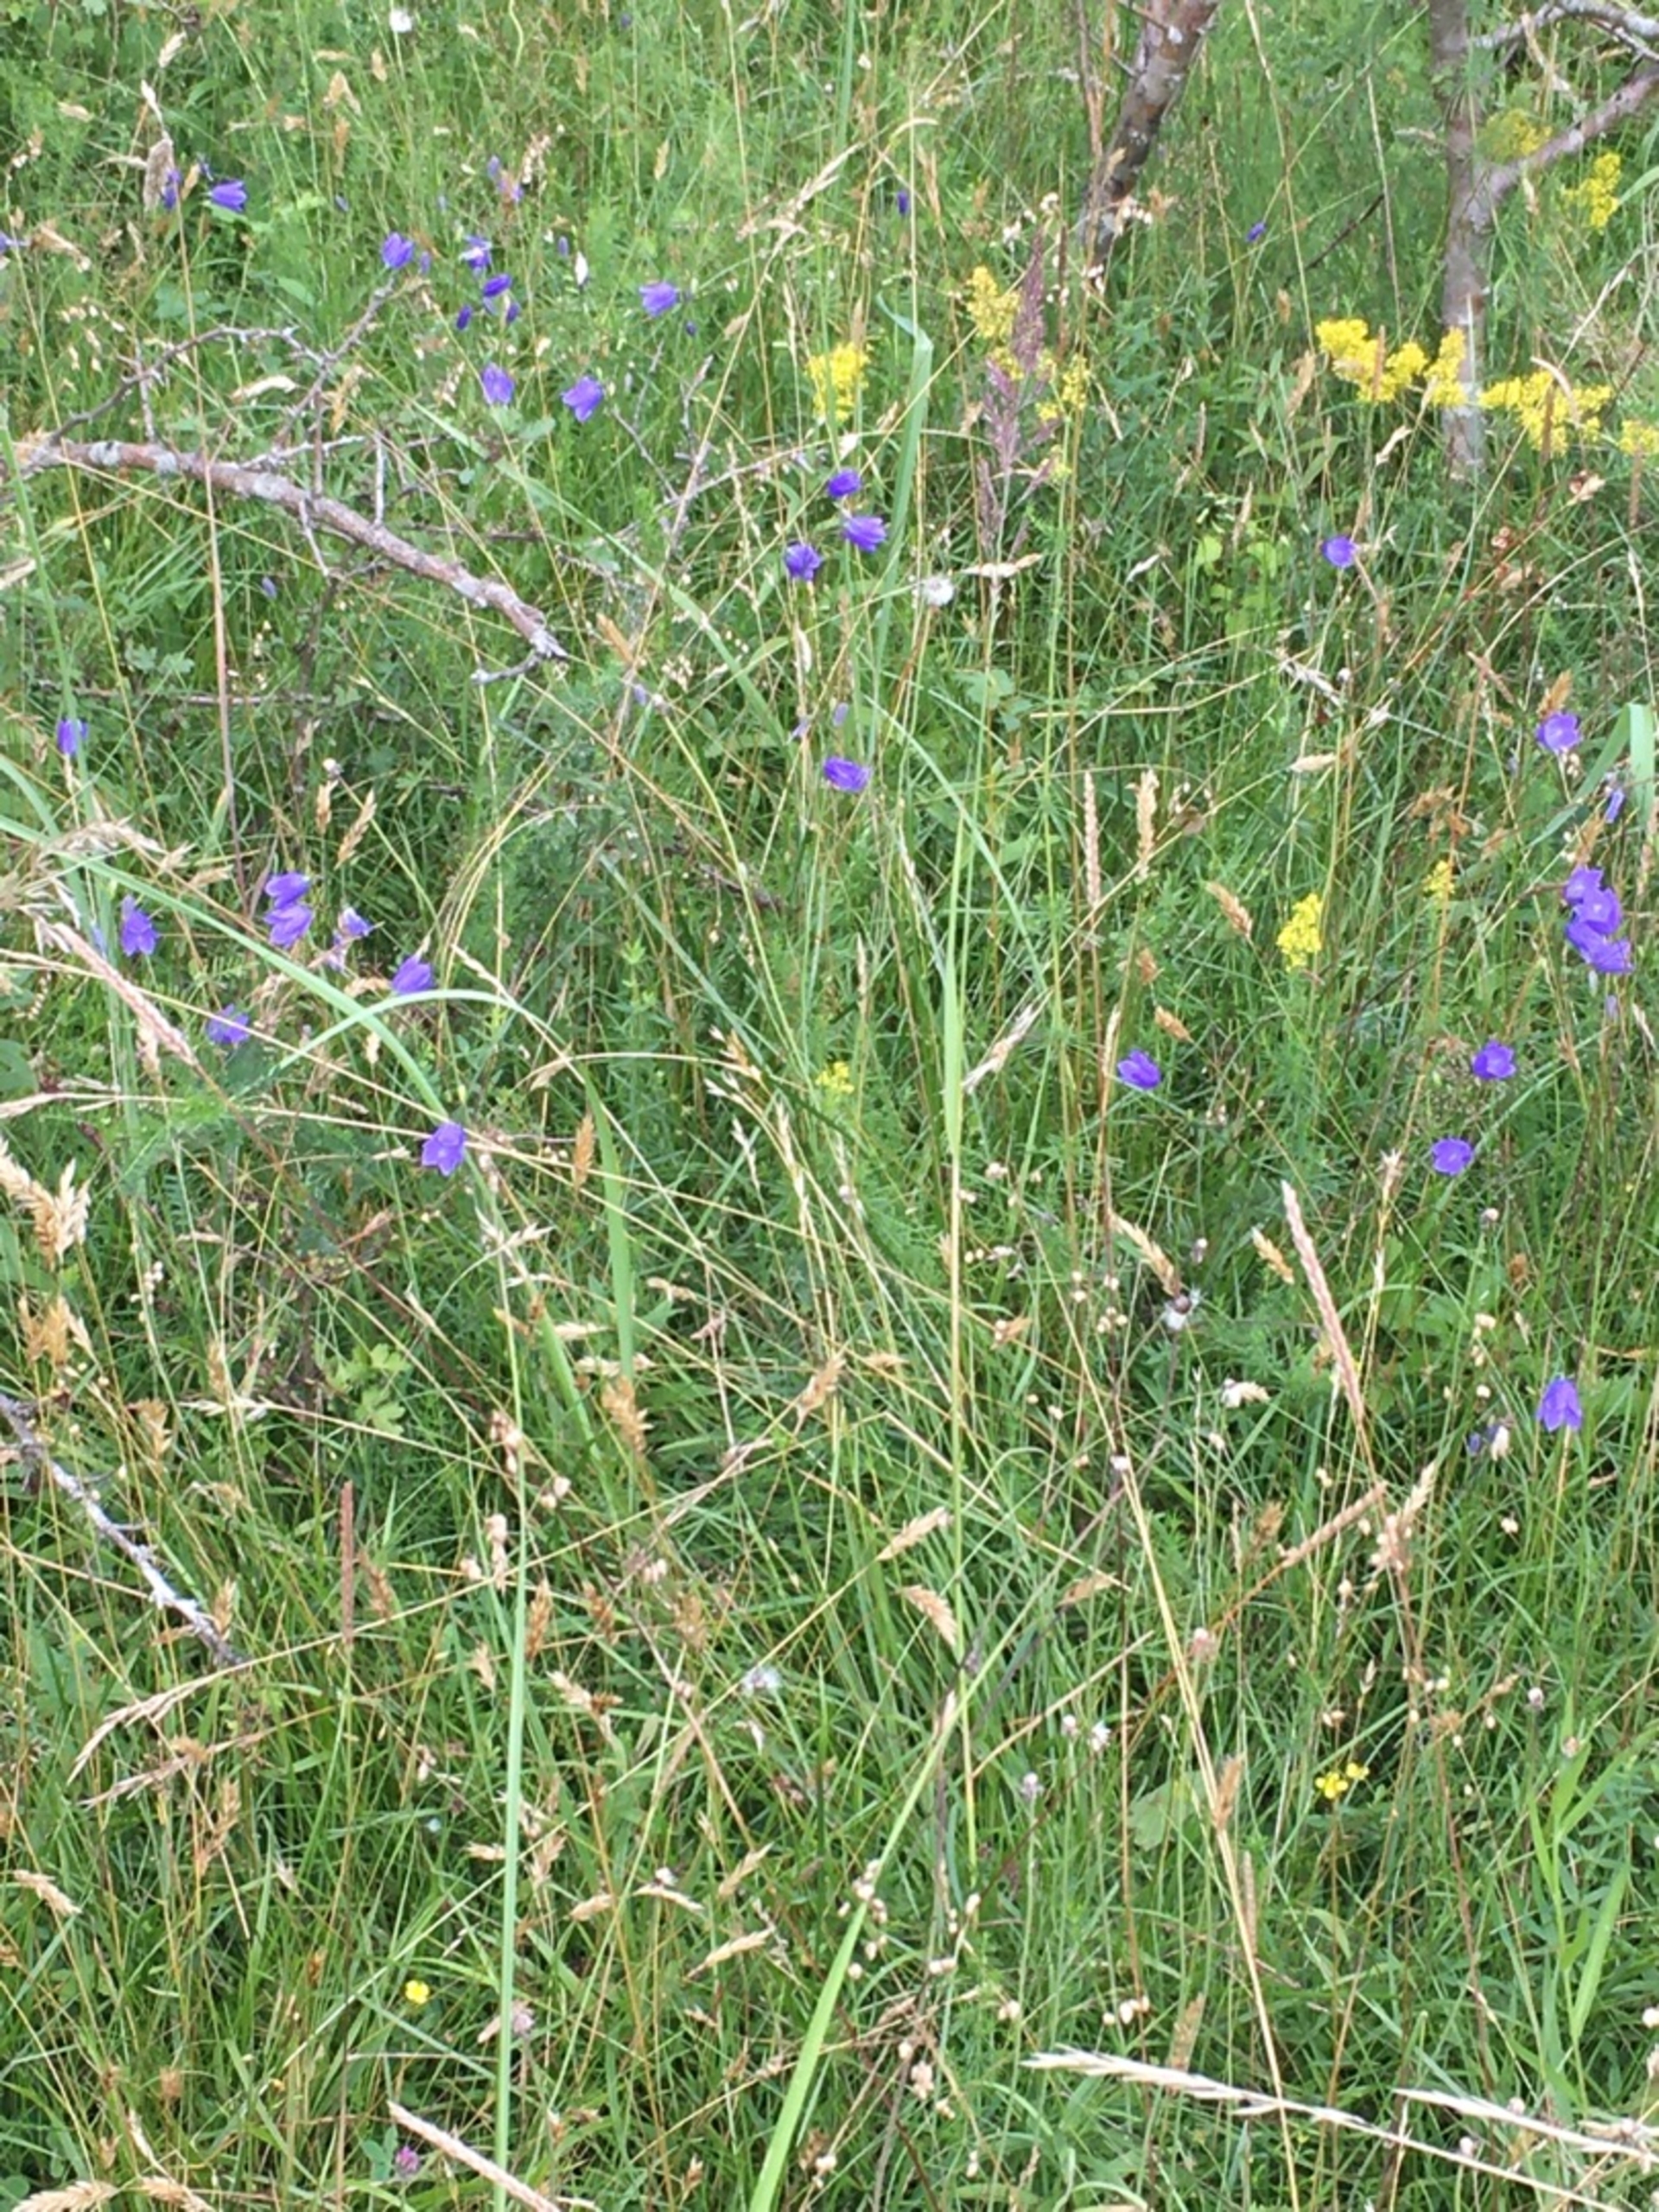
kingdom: Plantae
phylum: Tracheophyta
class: Magnoliopsida
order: Asterales
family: Campanulaceae
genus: Campanula
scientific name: Campanula rotundifolia
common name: Liden klokke
